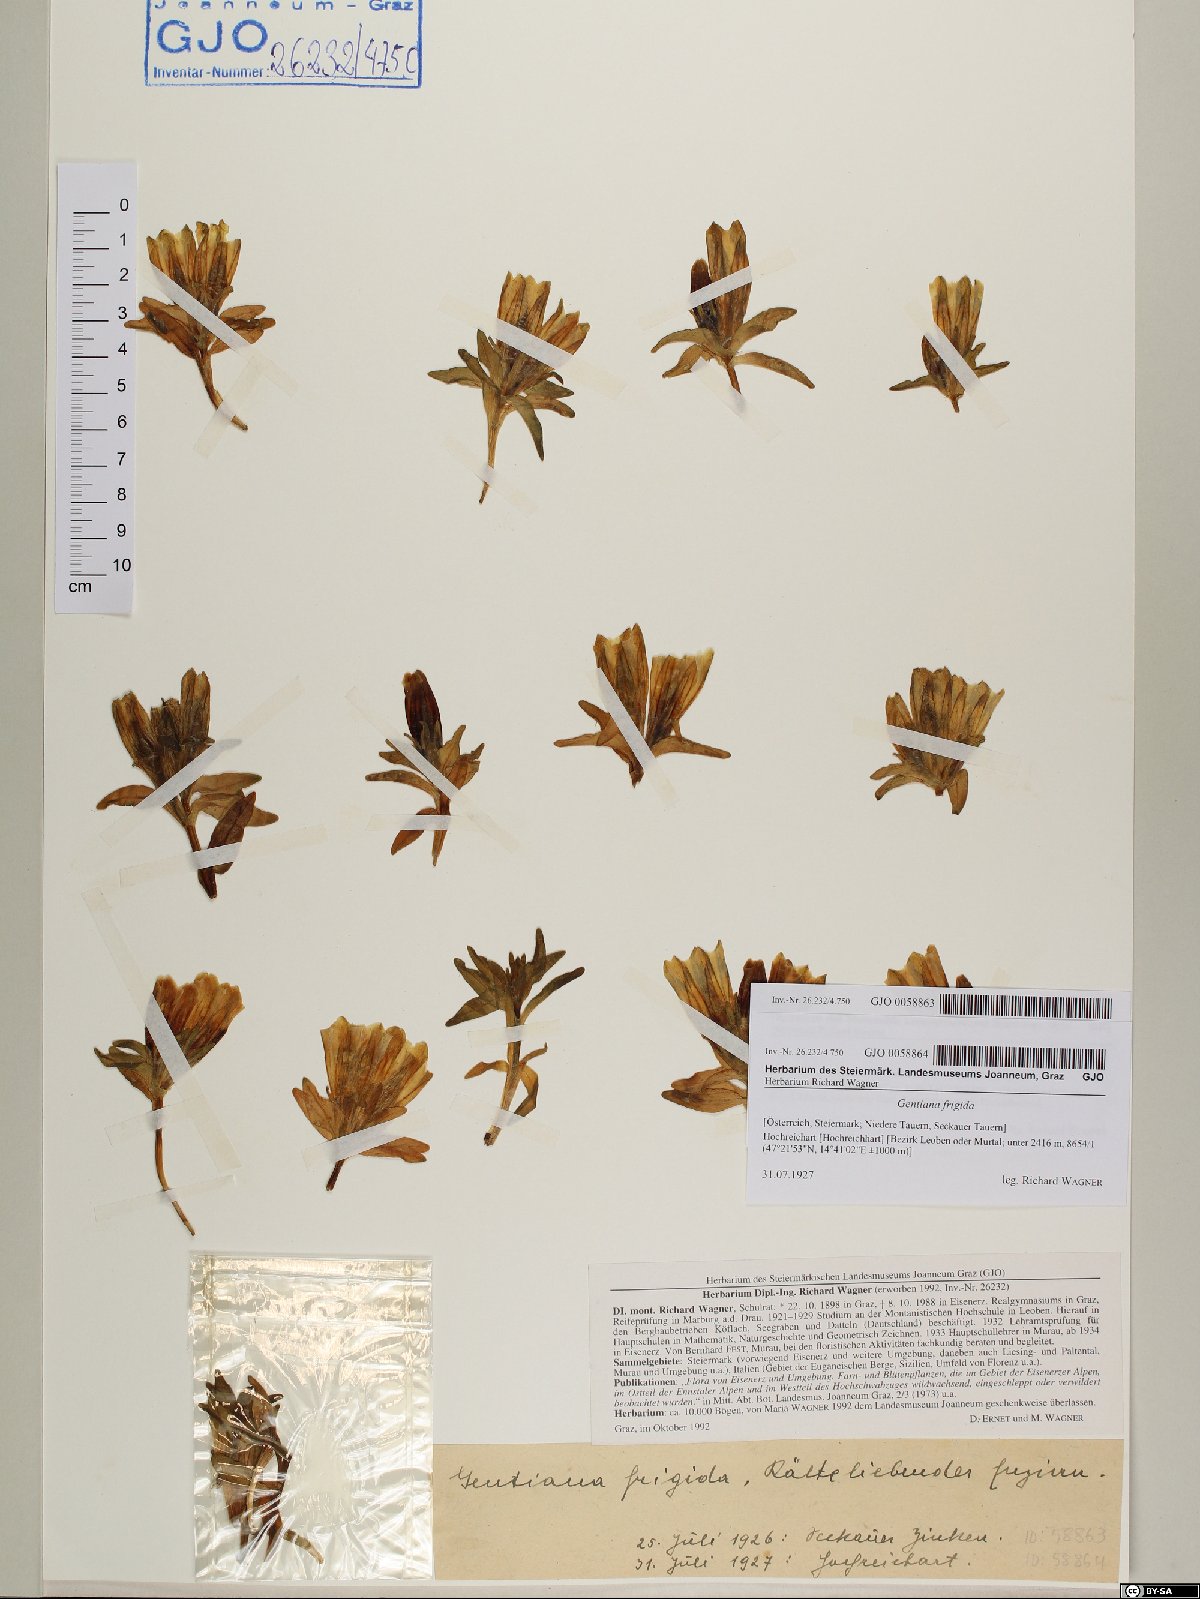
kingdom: Plantae
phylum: Tracheophyta
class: Magnoliopsida
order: Gentianales
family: Gentianaceae
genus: Gentiana
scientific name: Gentiana frigida
